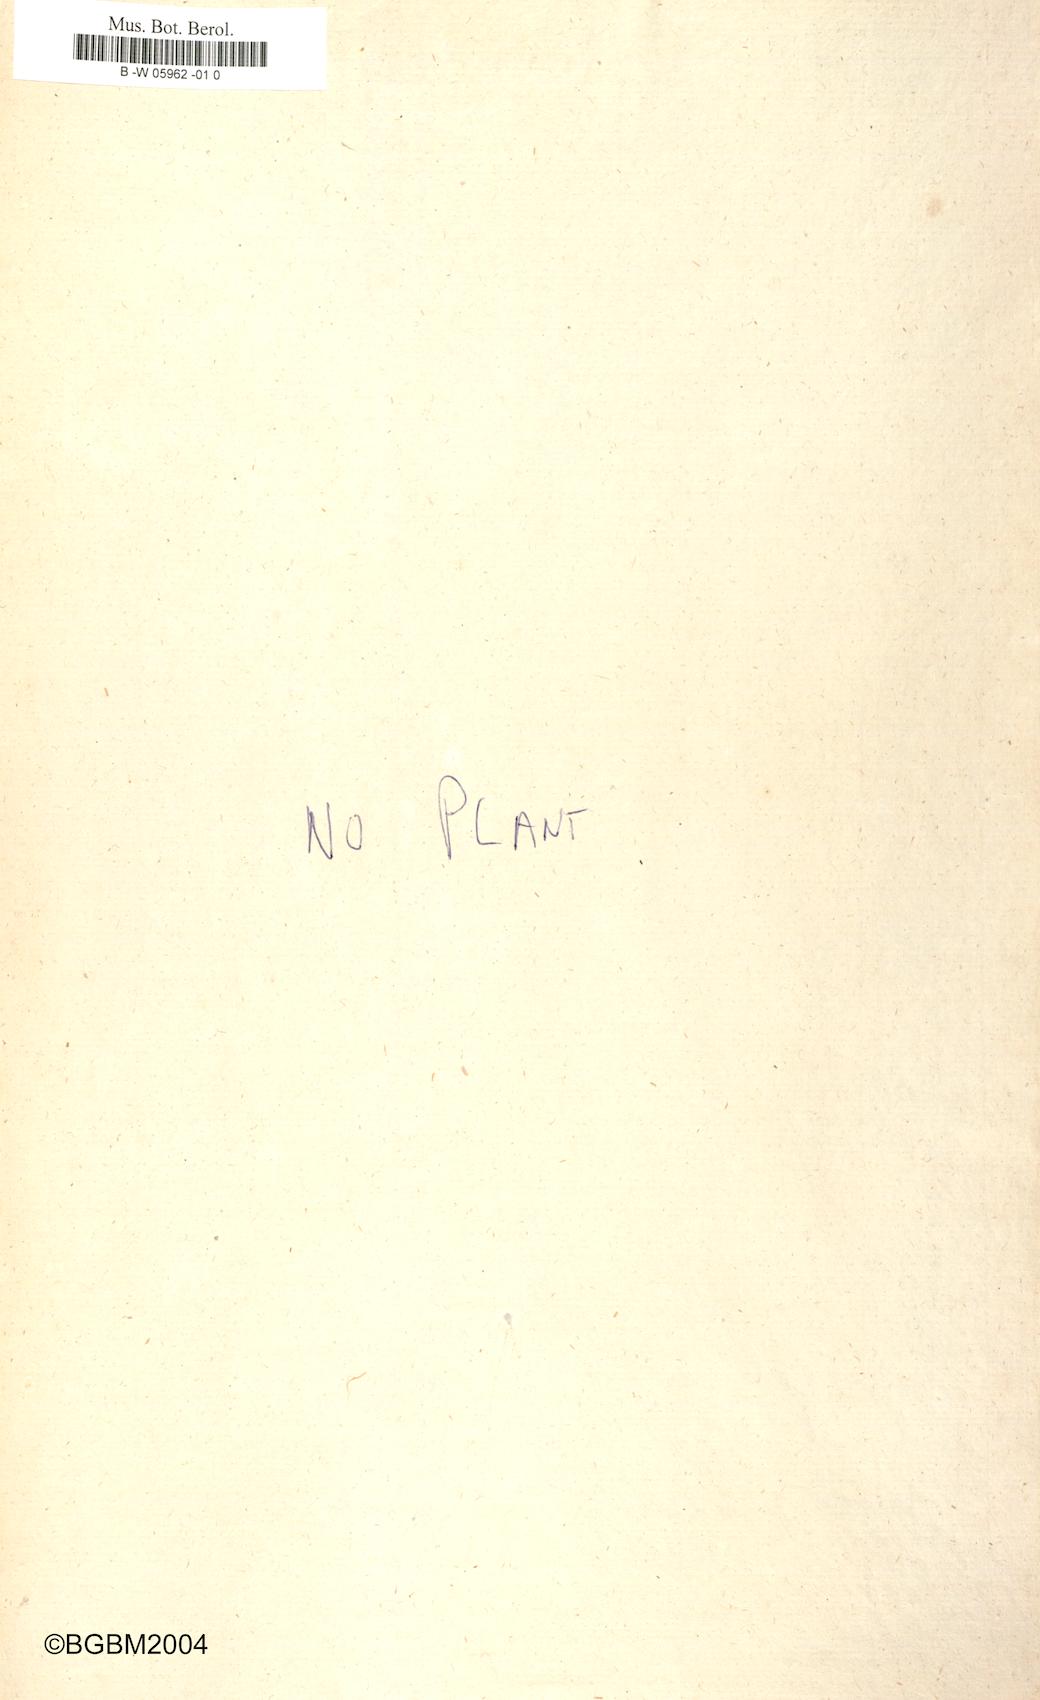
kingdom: Plantae
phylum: Tracheophyta
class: Magnoliopsida
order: Apiales
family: Apiaceae
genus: Foeniculum
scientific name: Foeniculum vulgare
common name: Fennel
